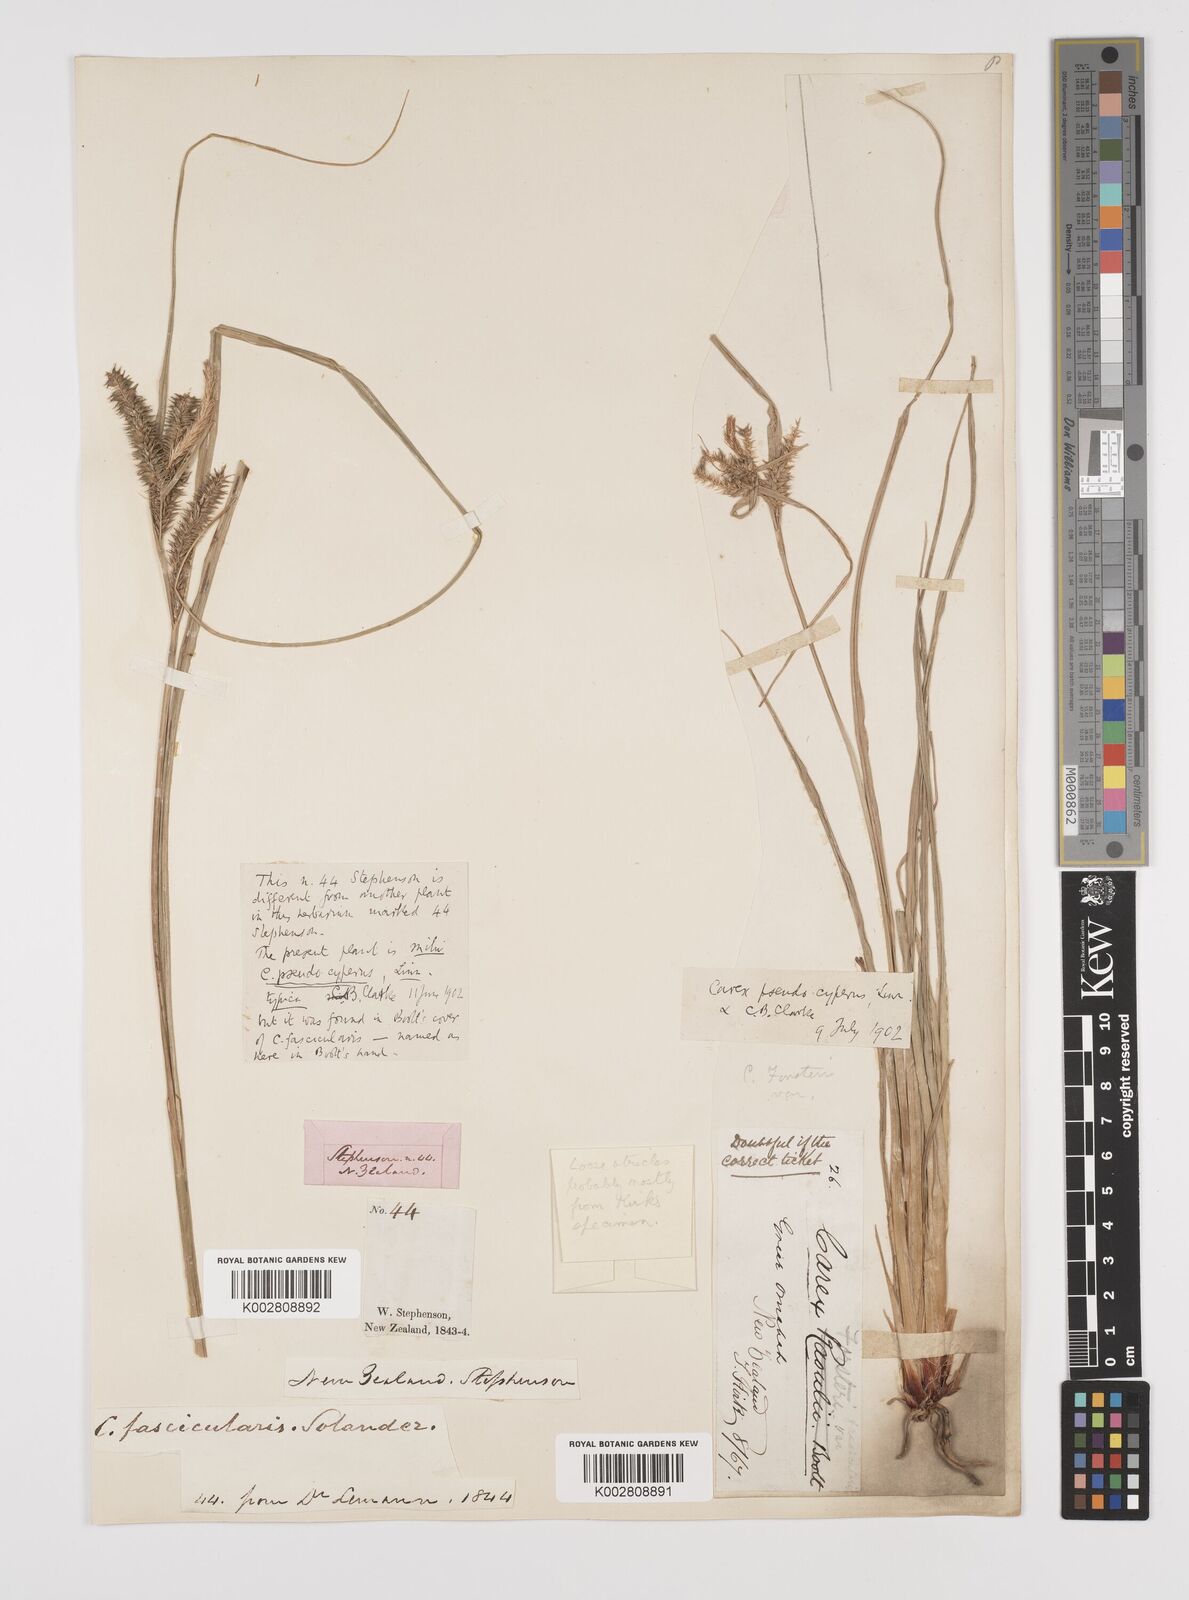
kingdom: Plantae
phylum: Tracheophyta
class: Liliopsida
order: Poales
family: Cyperaceae
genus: Carex
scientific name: Carex fascicularis
